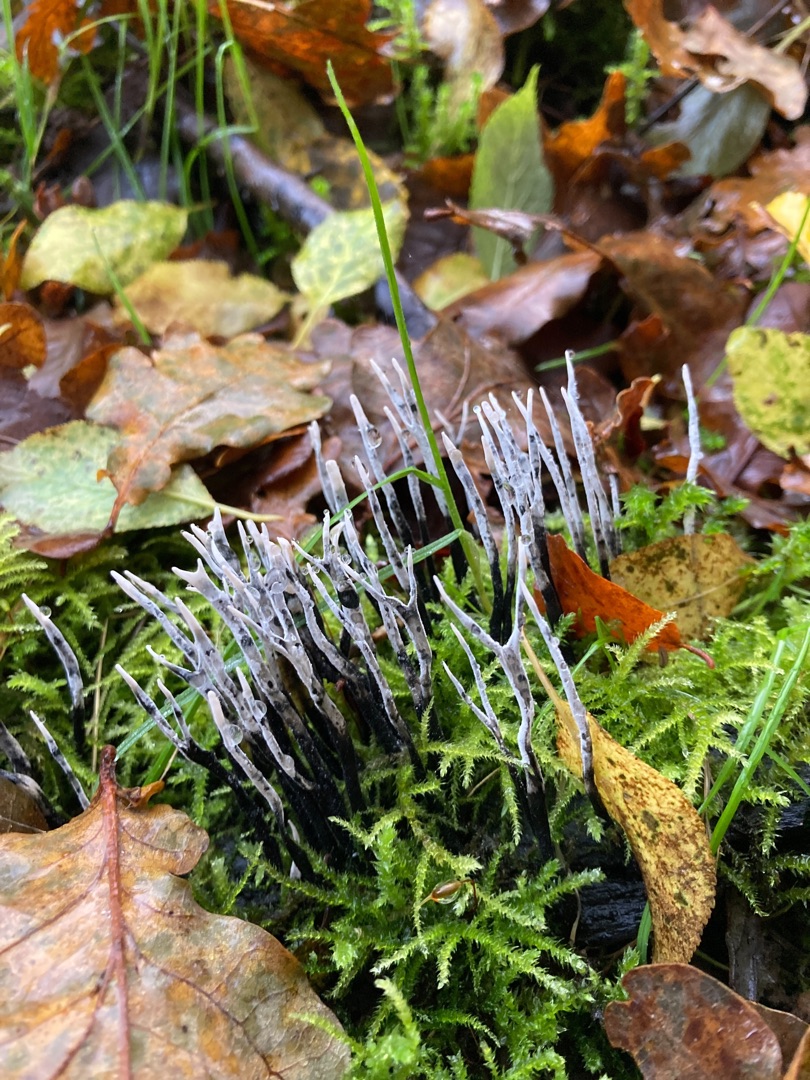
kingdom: Fungi
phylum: Ascomycota
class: Sordariomycetes
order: Xylariales
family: Xylariaceae
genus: Xylaria
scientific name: Xylaria hypoxylon
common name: Grenet stødsvamp
